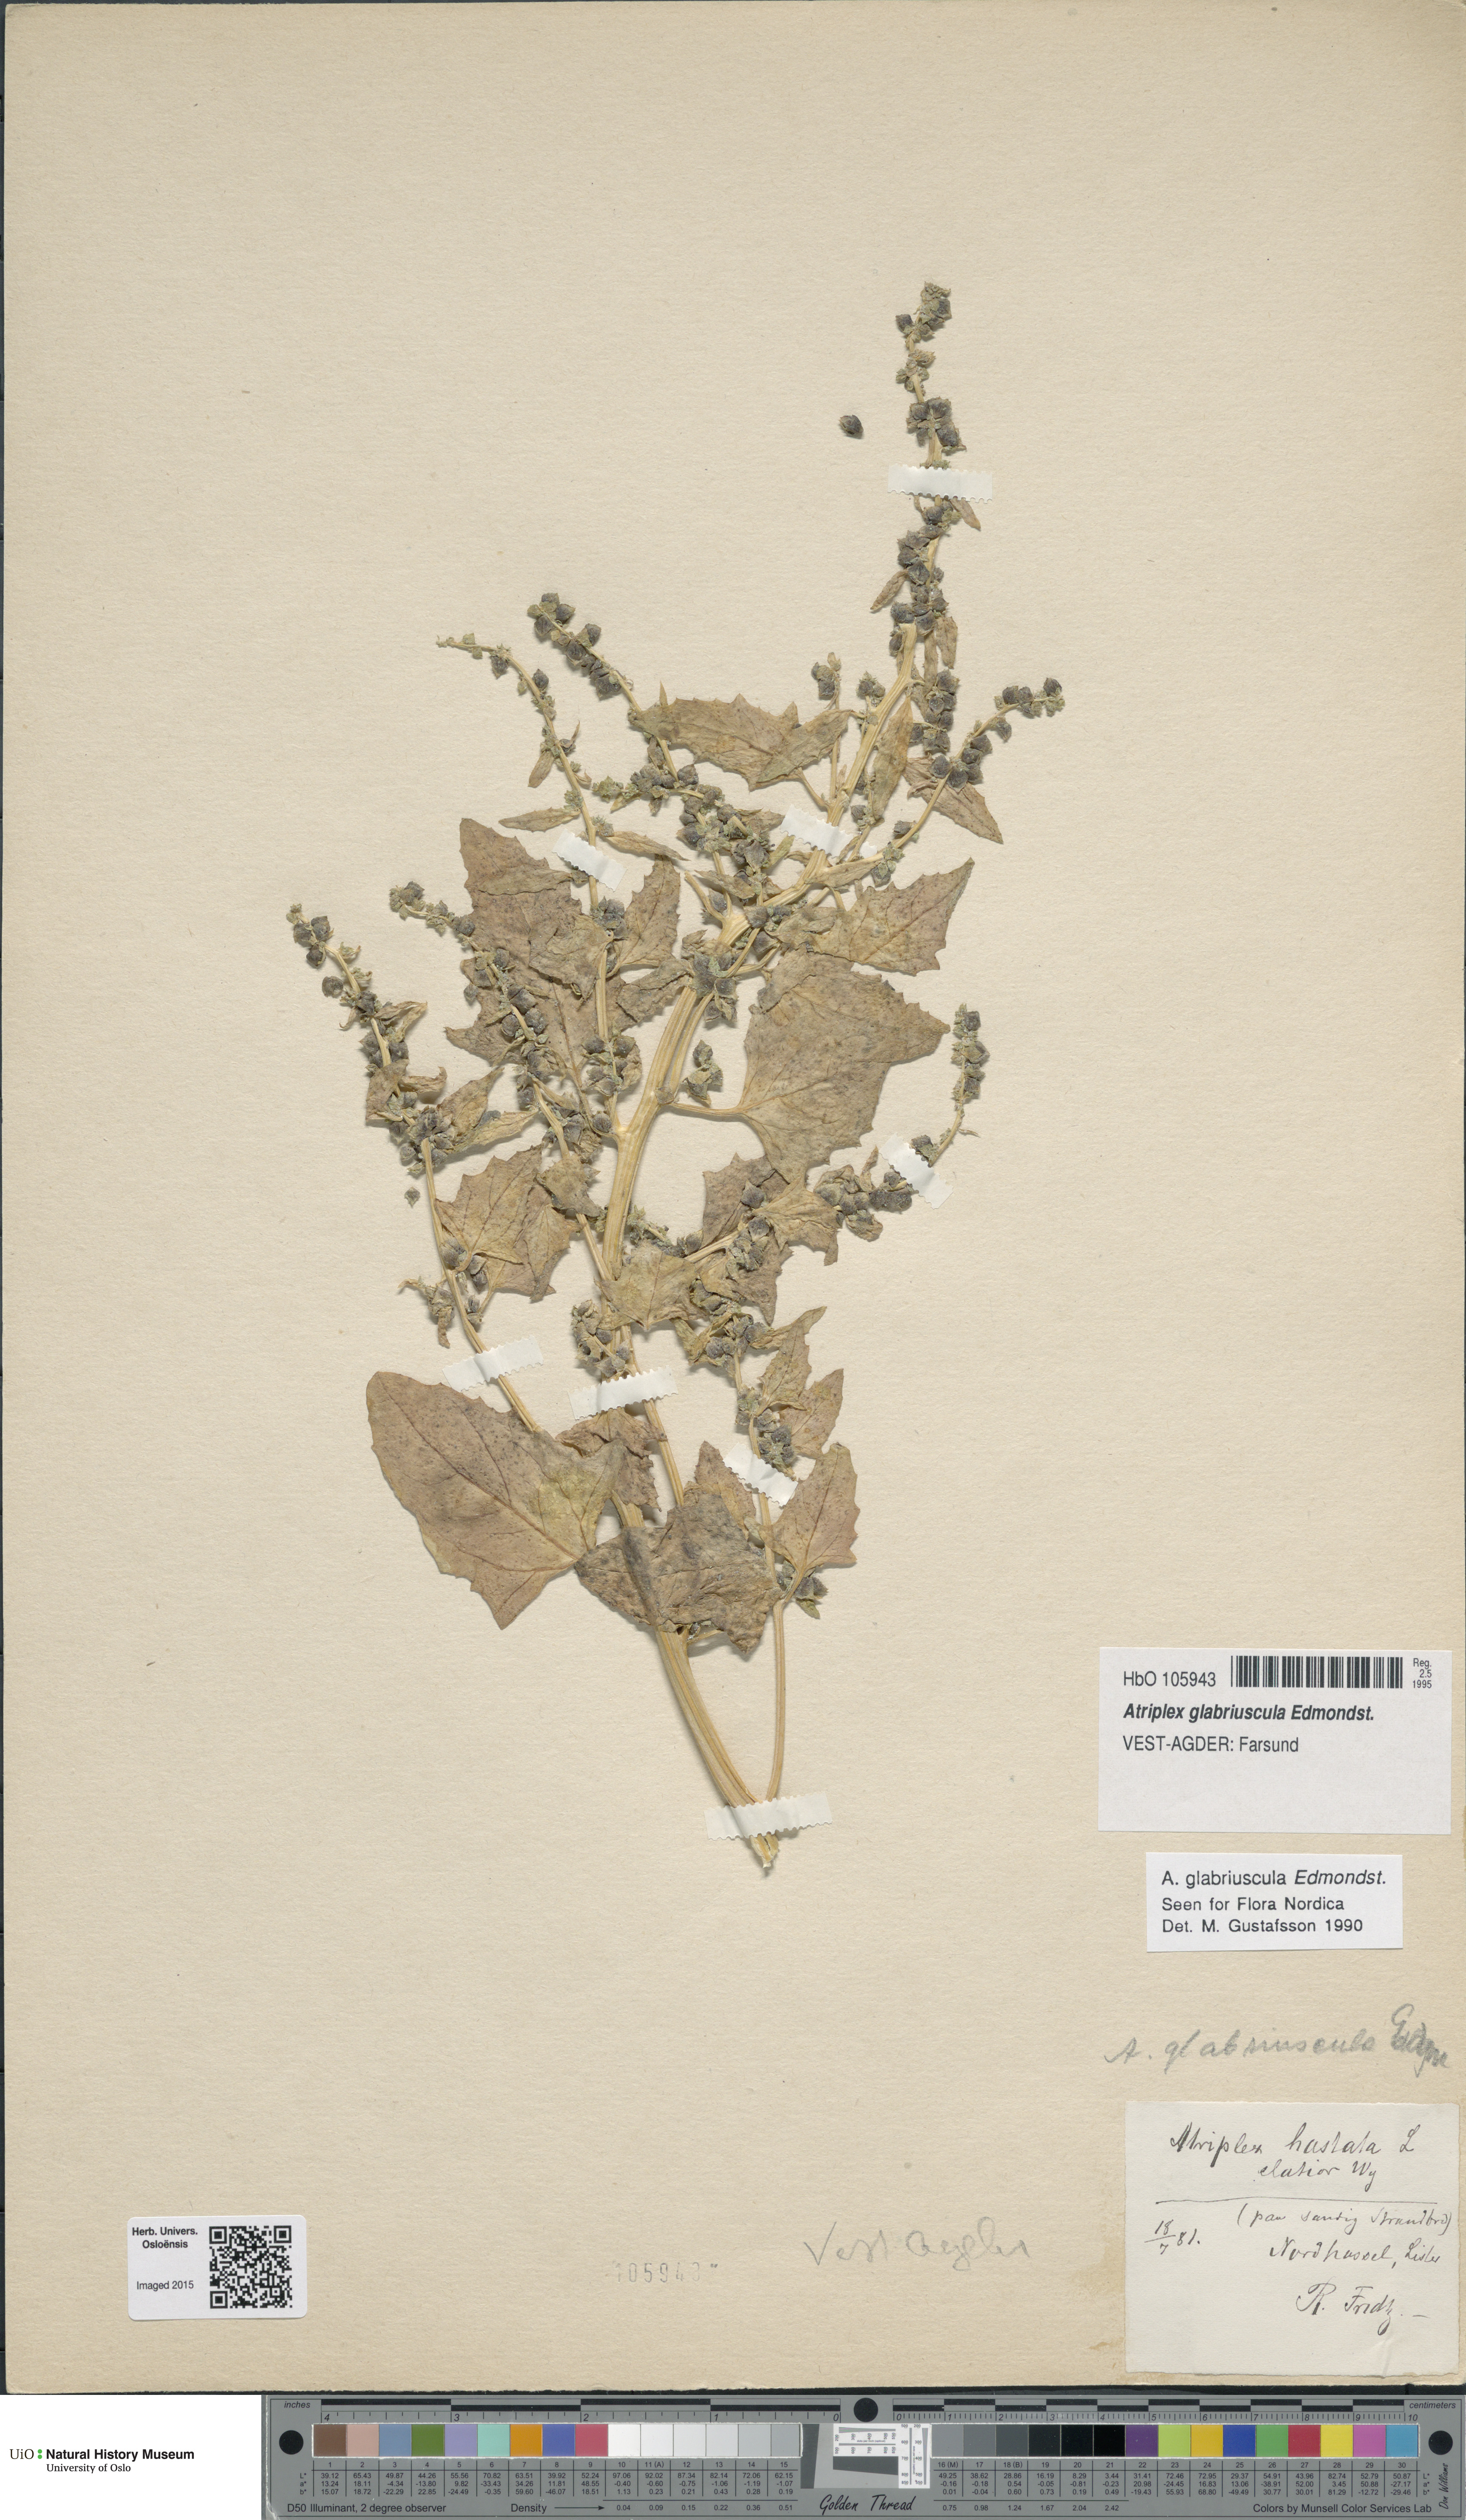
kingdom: Plantae
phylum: Tracheophyta
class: Magnoliopsida
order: Caryophyllales
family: Amaranthaceae
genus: Atriplex
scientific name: Atriplex glabriuscula
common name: Babington's orache
